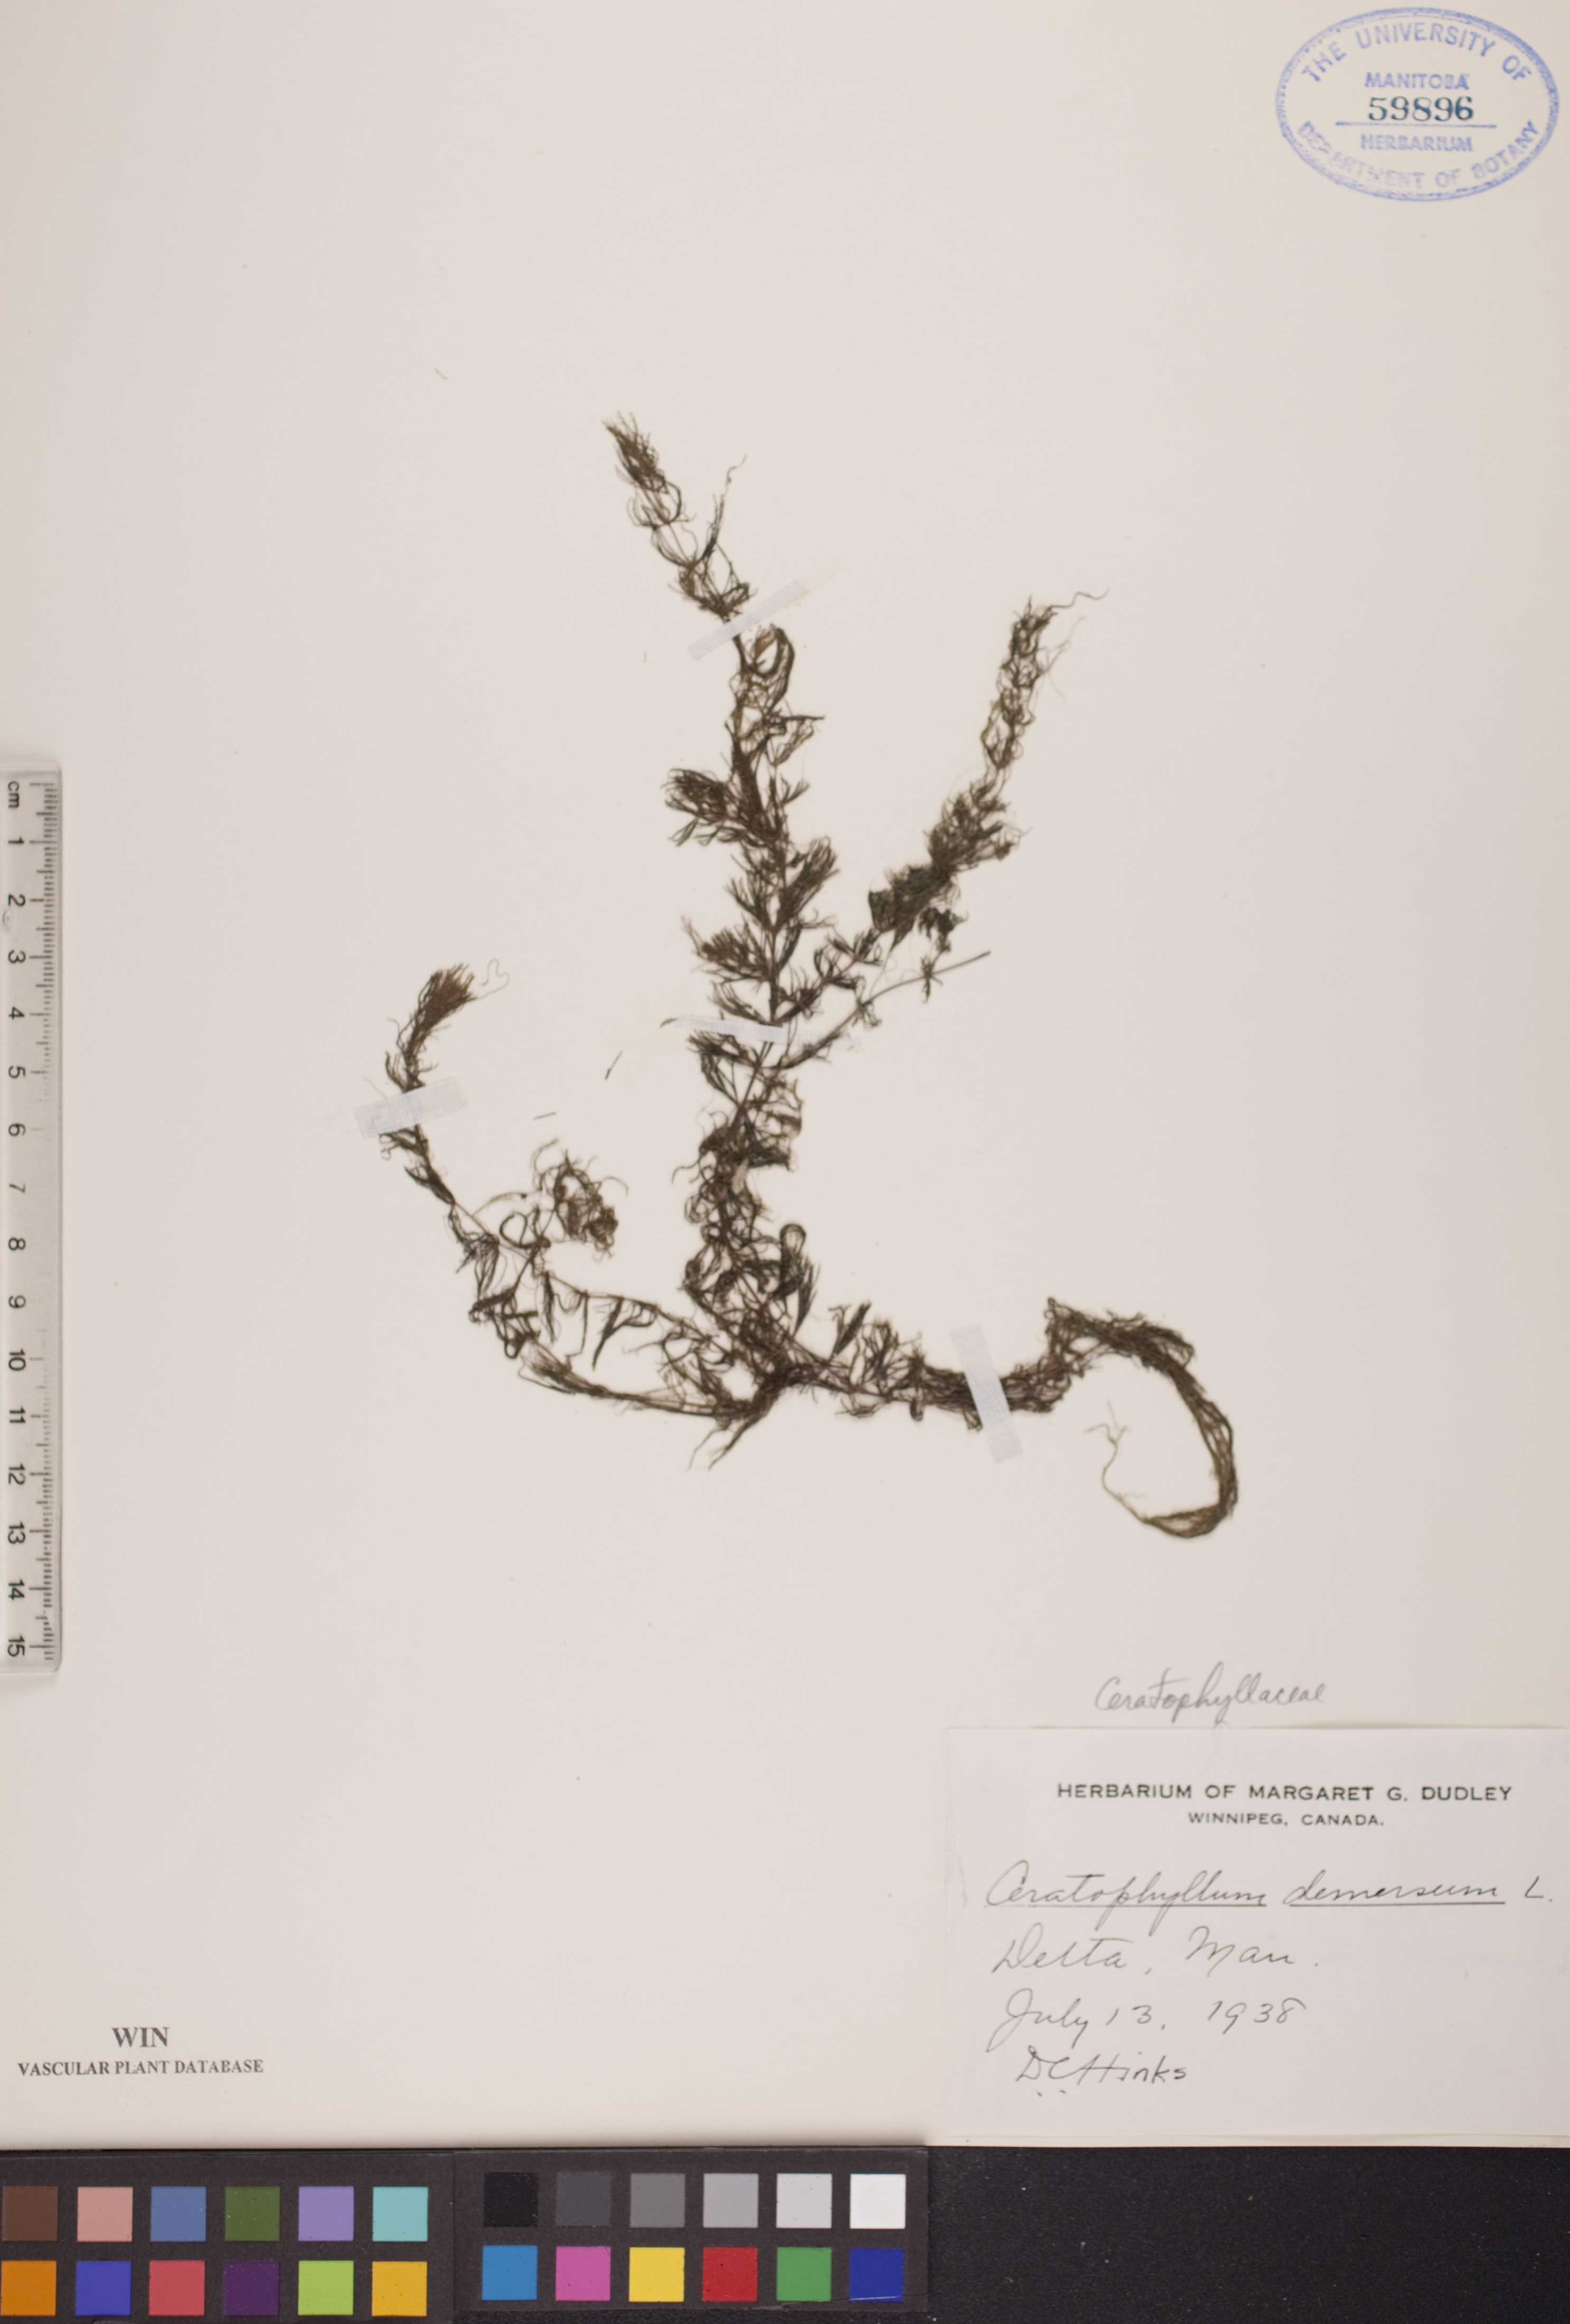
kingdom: Plantae
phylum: Tracheophyta
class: Magnoliopsida
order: Ceratophyllales
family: Ceratophyllaceae
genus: Ceratophyllum
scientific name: Ceratophyllum demersum
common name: Rigid hornwort
